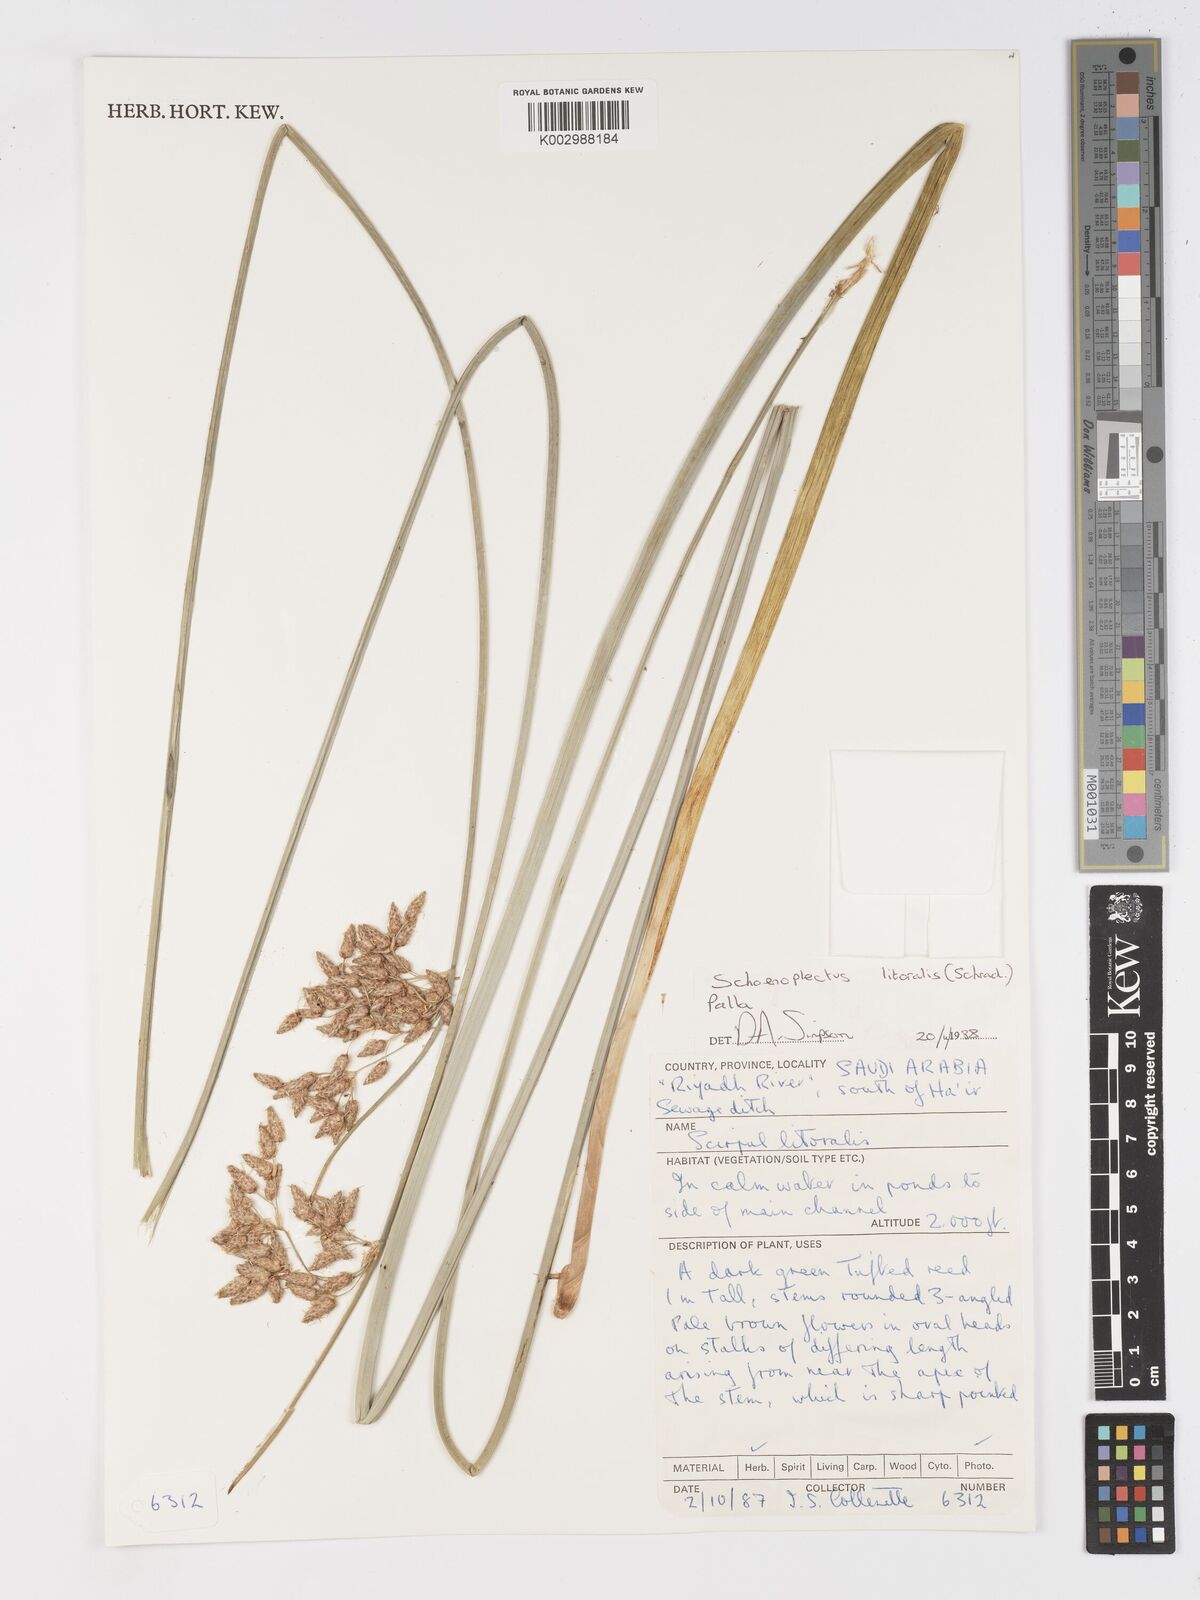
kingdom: Plantae
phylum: Tracheophyta
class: Liliopsida
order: Poales
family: Cyperaceae
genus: Schoenoplectus
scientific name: Schoenoplectus litoralis
